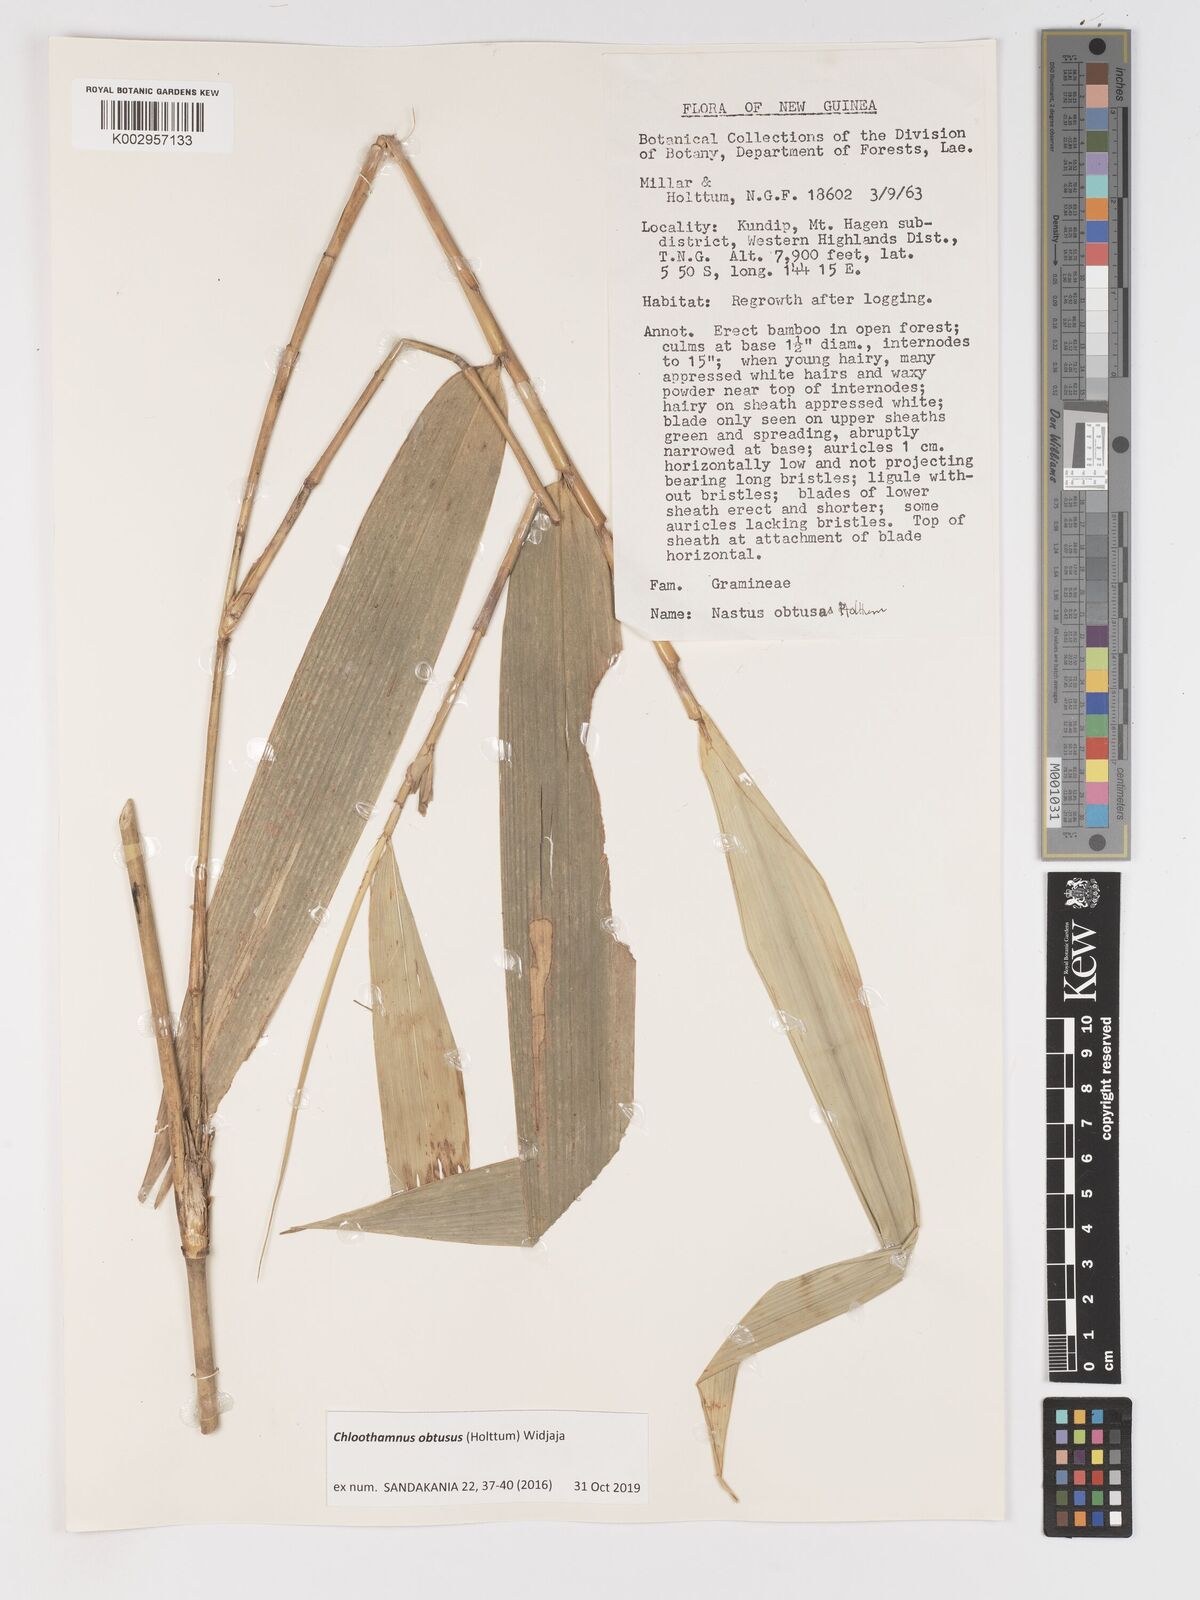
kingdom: Plantae
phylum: Tracheophyta
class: Liliopsida
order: Poales
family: Poaceae
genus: Chloothamnus
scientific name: Chloothamnus obtusus
